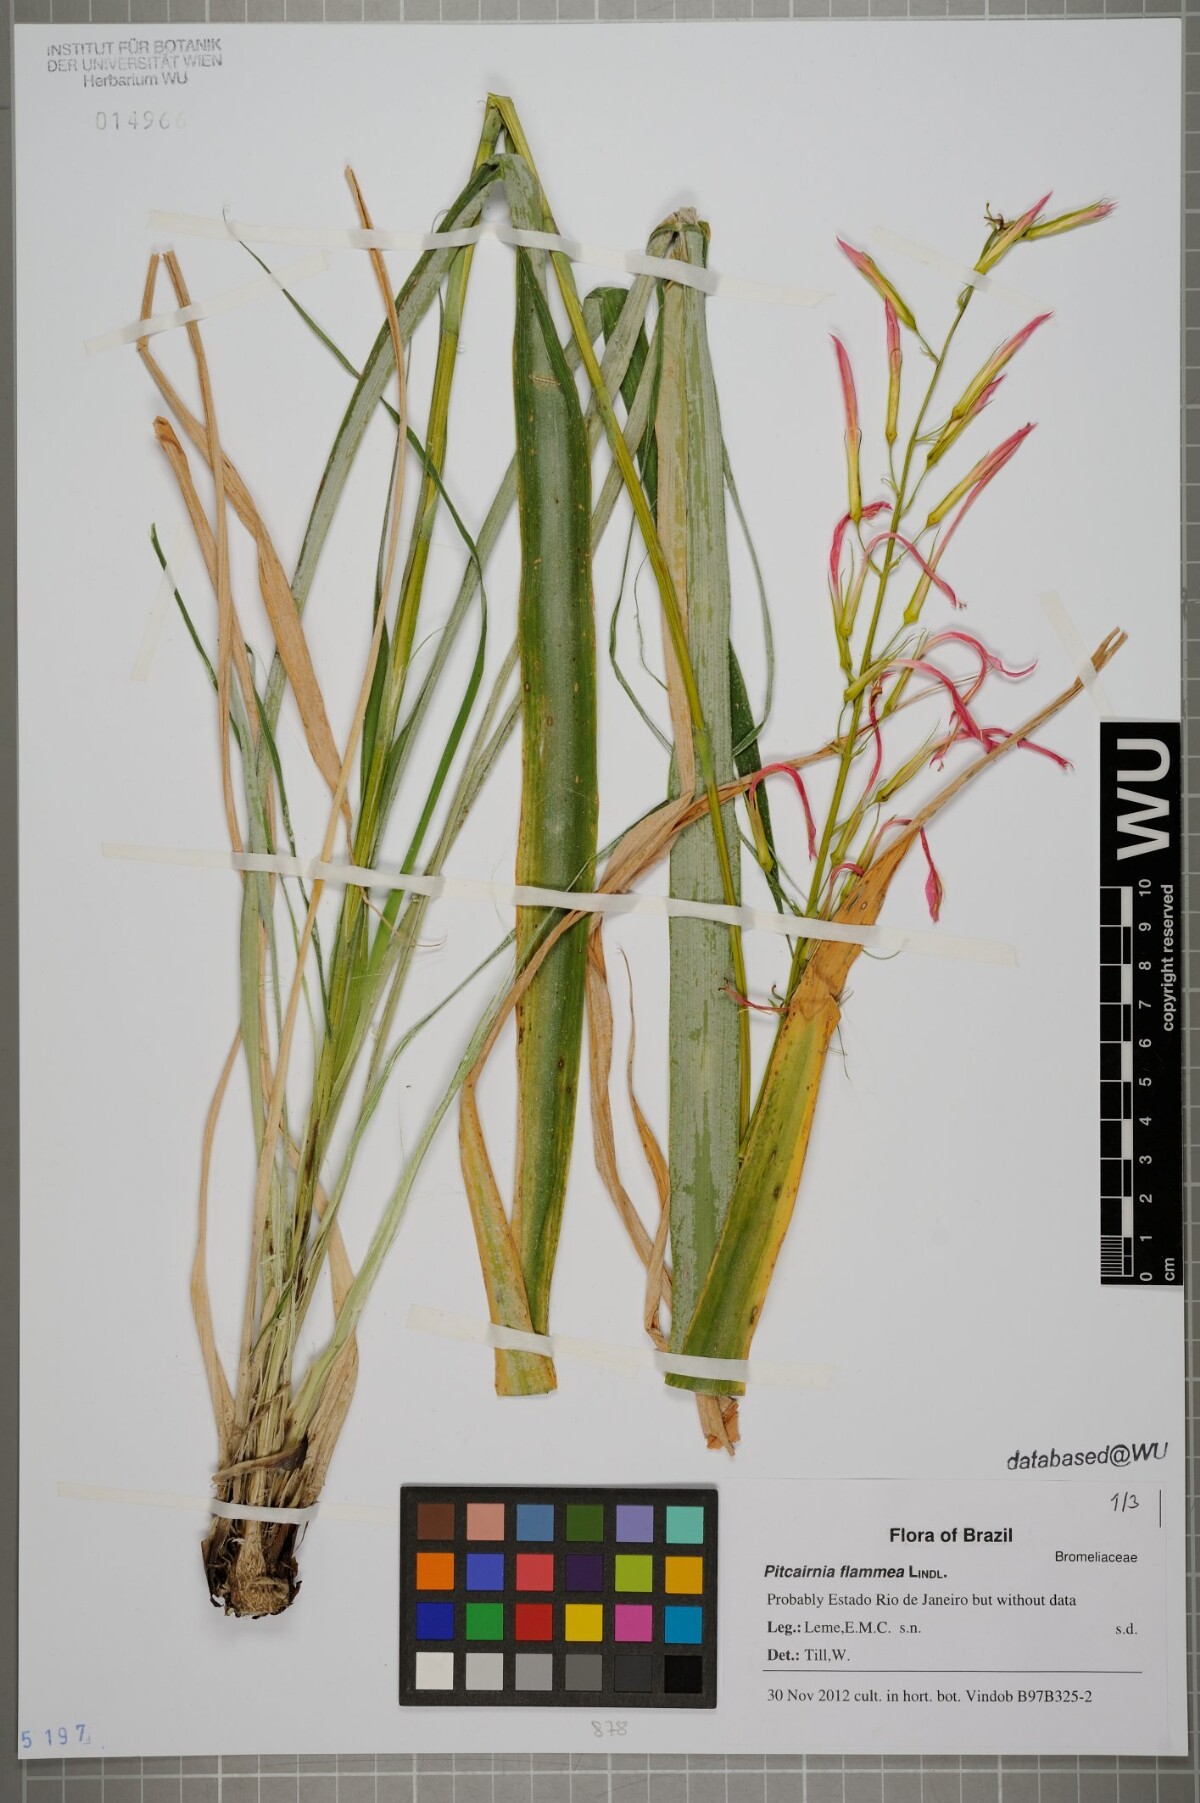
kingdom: Plantae
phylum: Tracheophyta
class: Liliopsida
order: Poales
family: Bromeliaceae
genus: Pitcairnia
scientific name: Pitcairnia flammea
